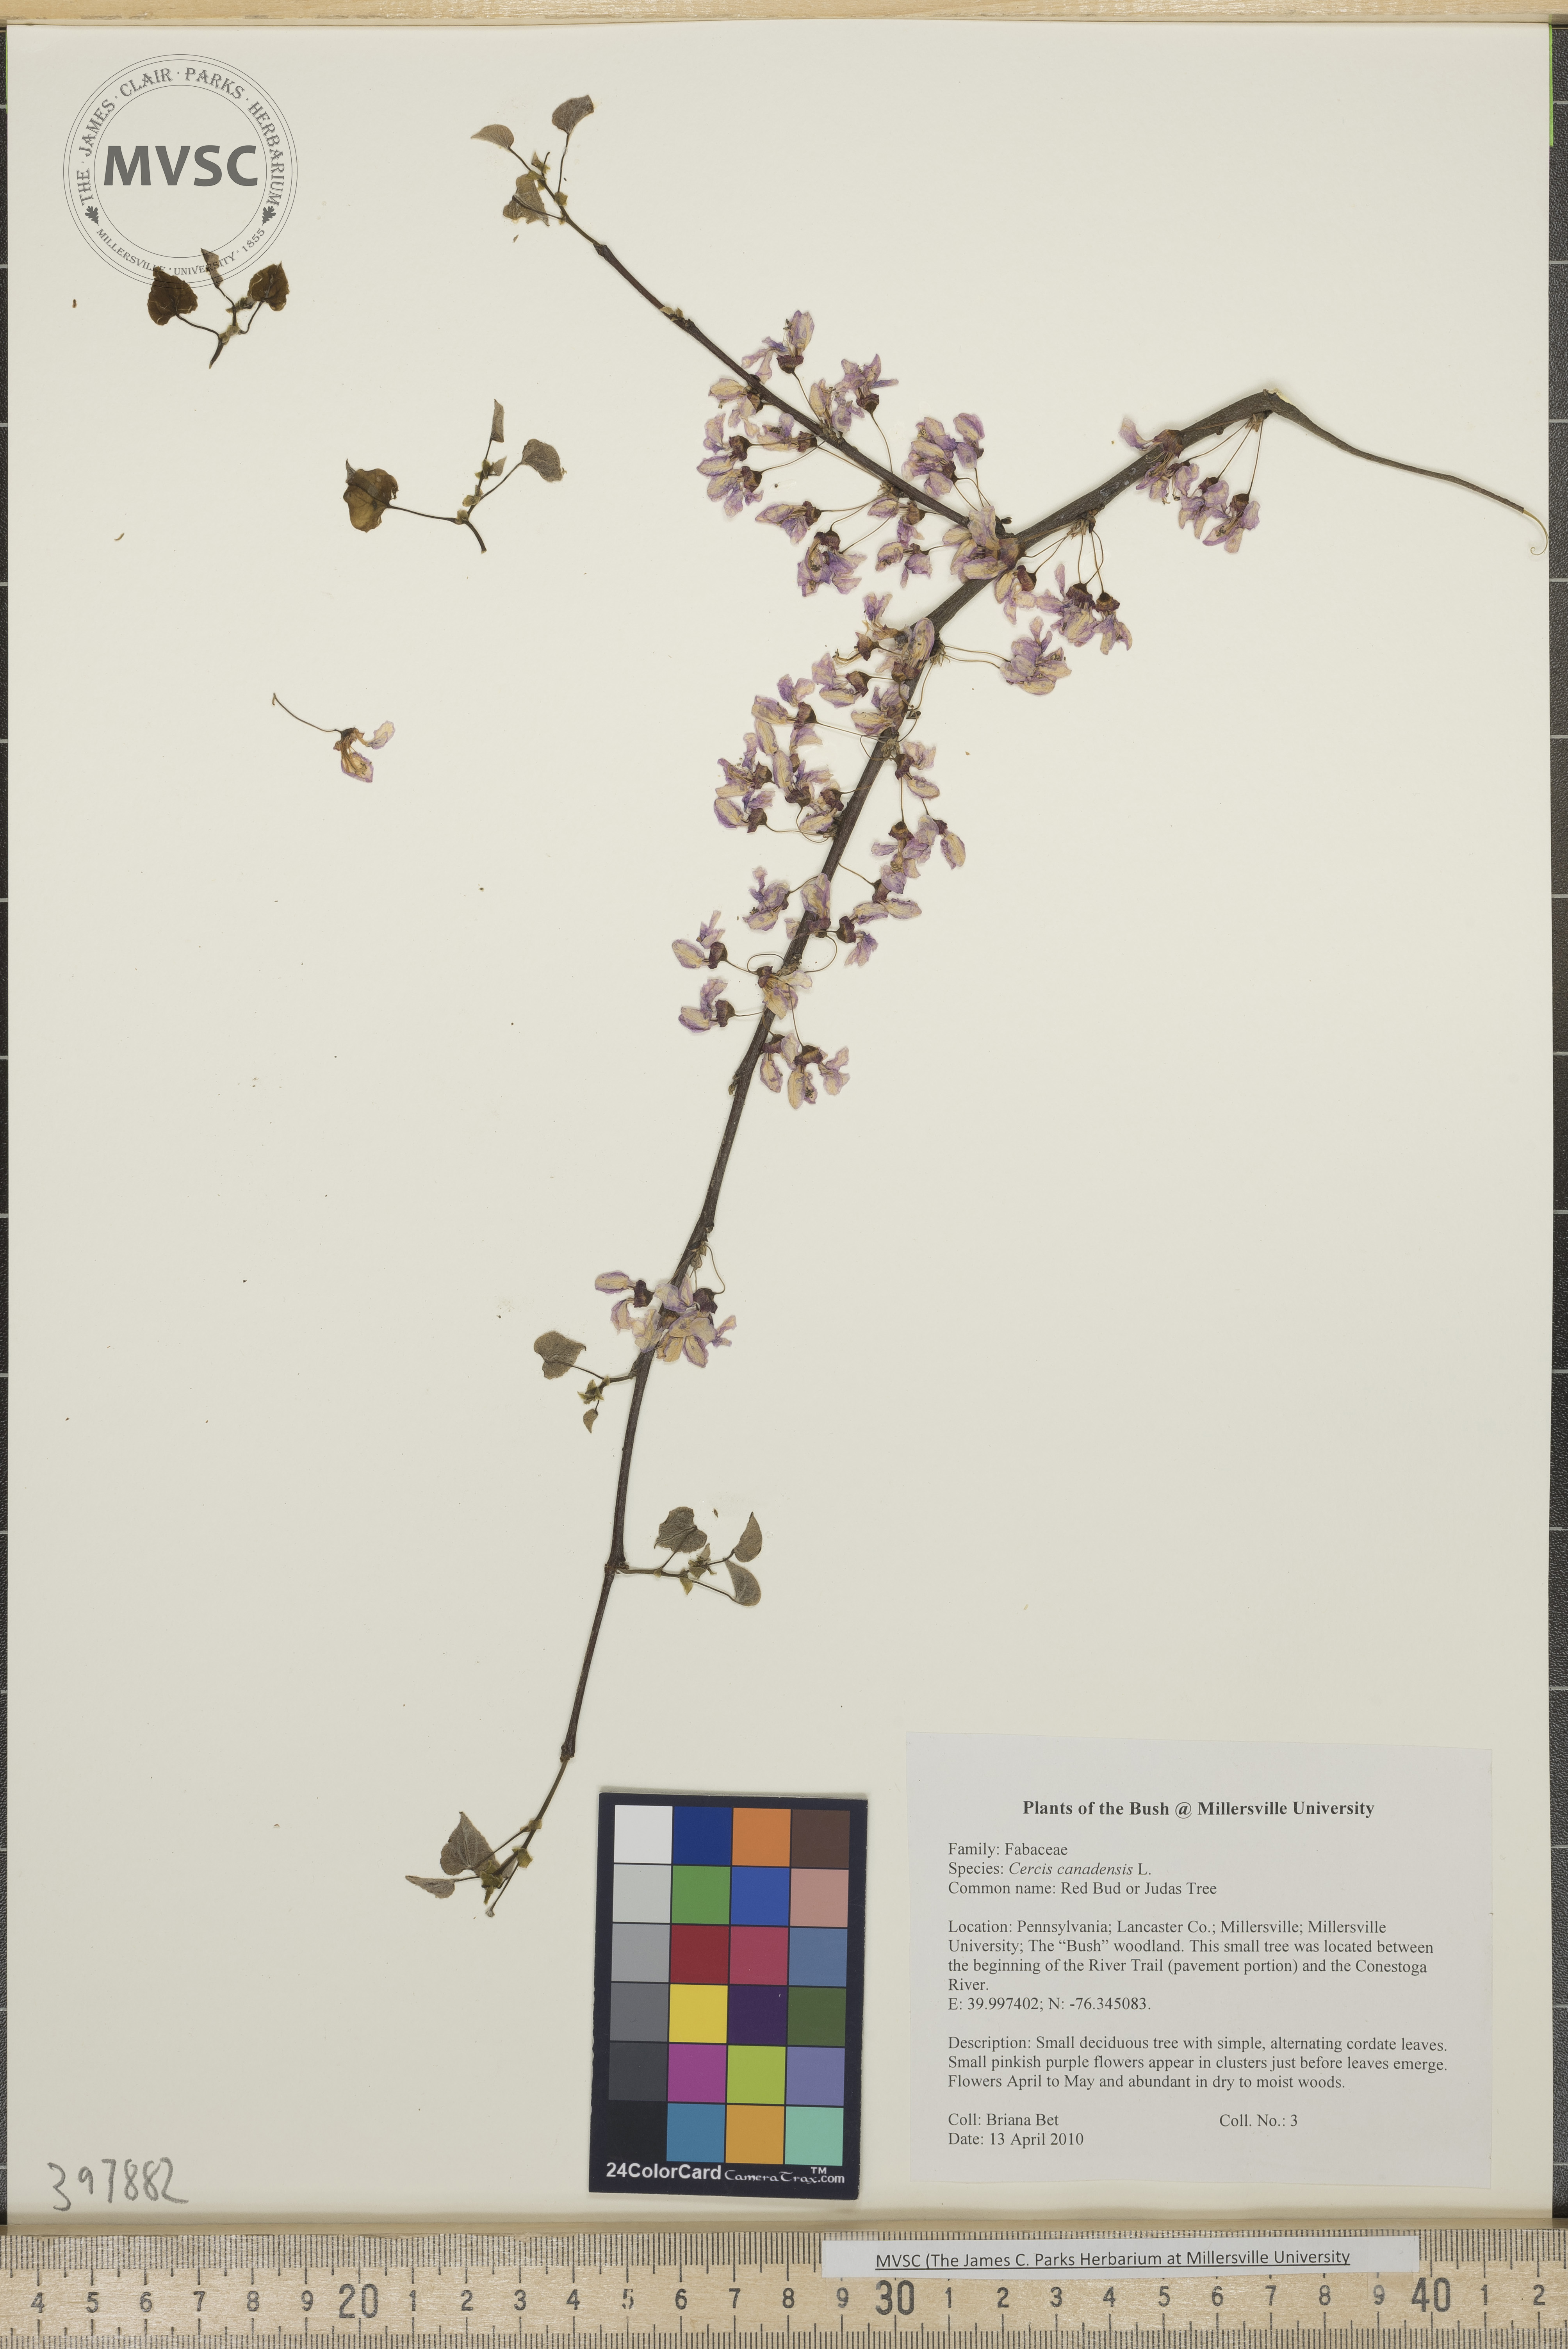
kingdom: Plantae
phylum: Tracheophyta
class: Magnoliopsida
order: Fabales
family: Fabaceae
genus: Cercis
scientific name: Cercis canadensis
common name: Redbud
